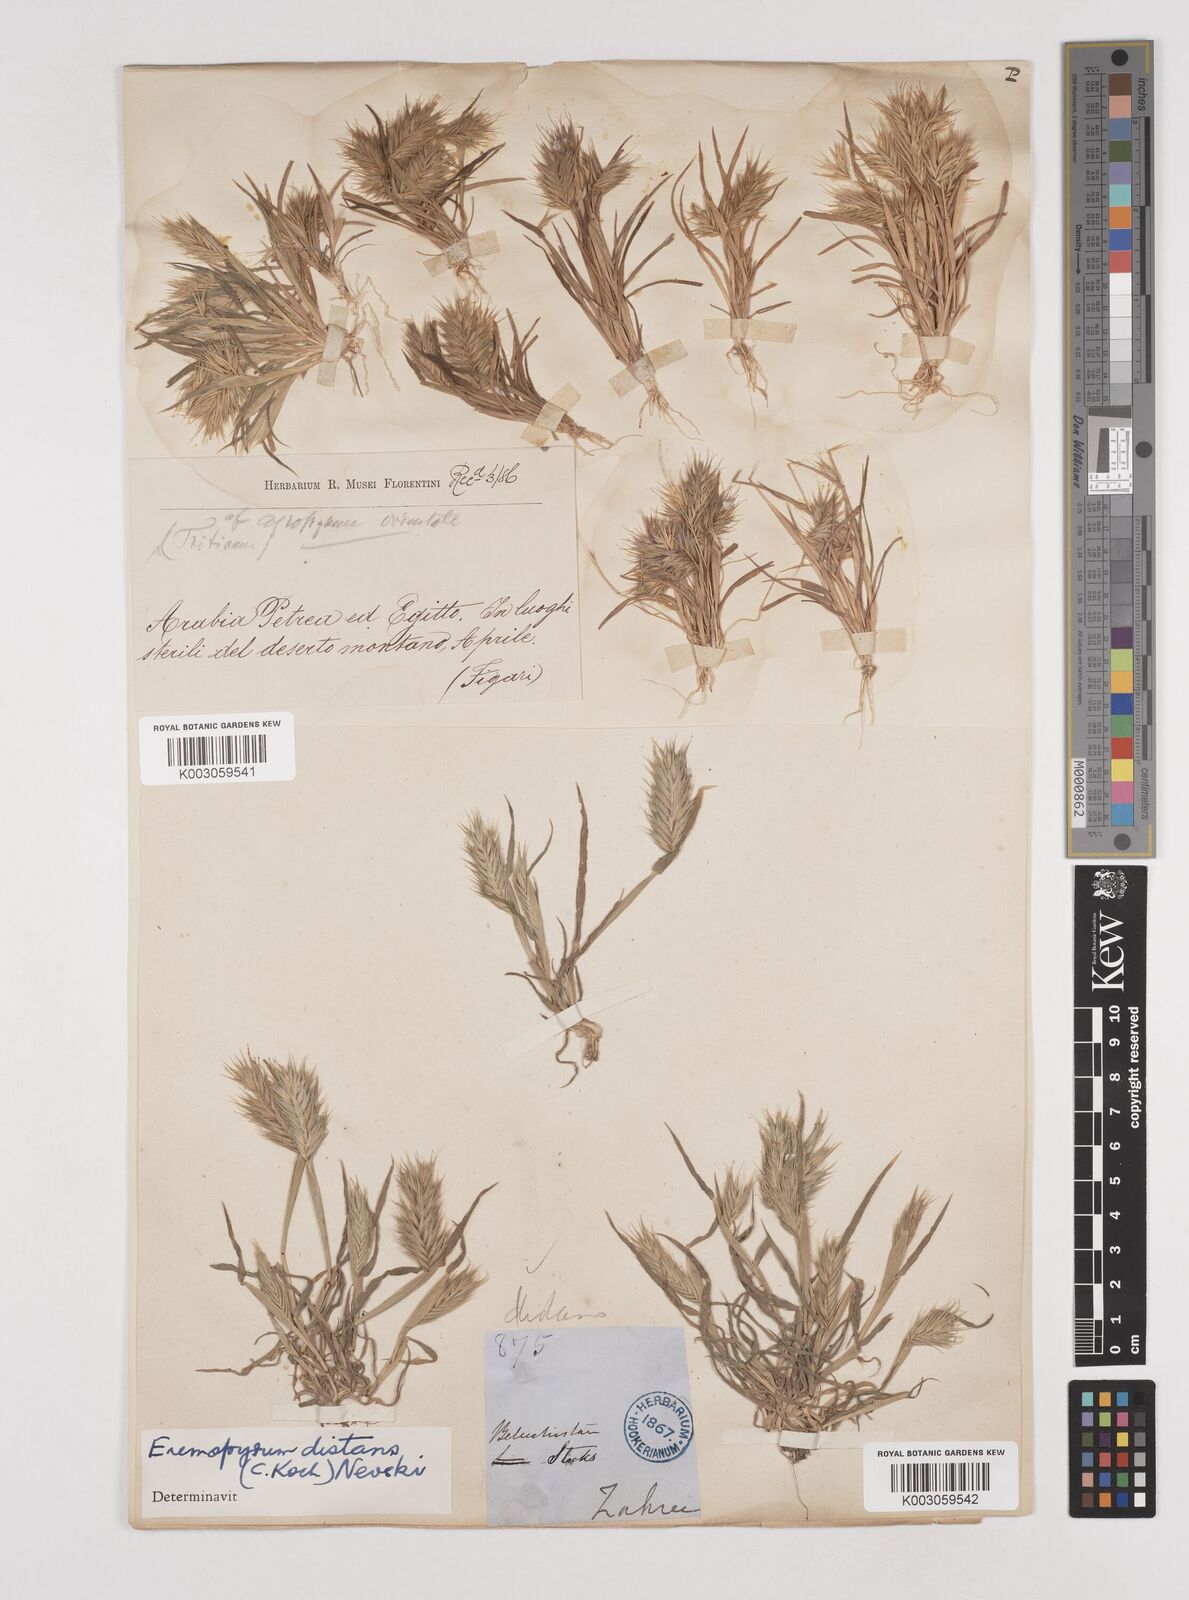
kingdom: Plantae
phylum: Tracheophyta
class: Liliopsida
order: Poales
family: Poaceae
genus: Eremopyrum
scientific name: Eremopyrum distans
